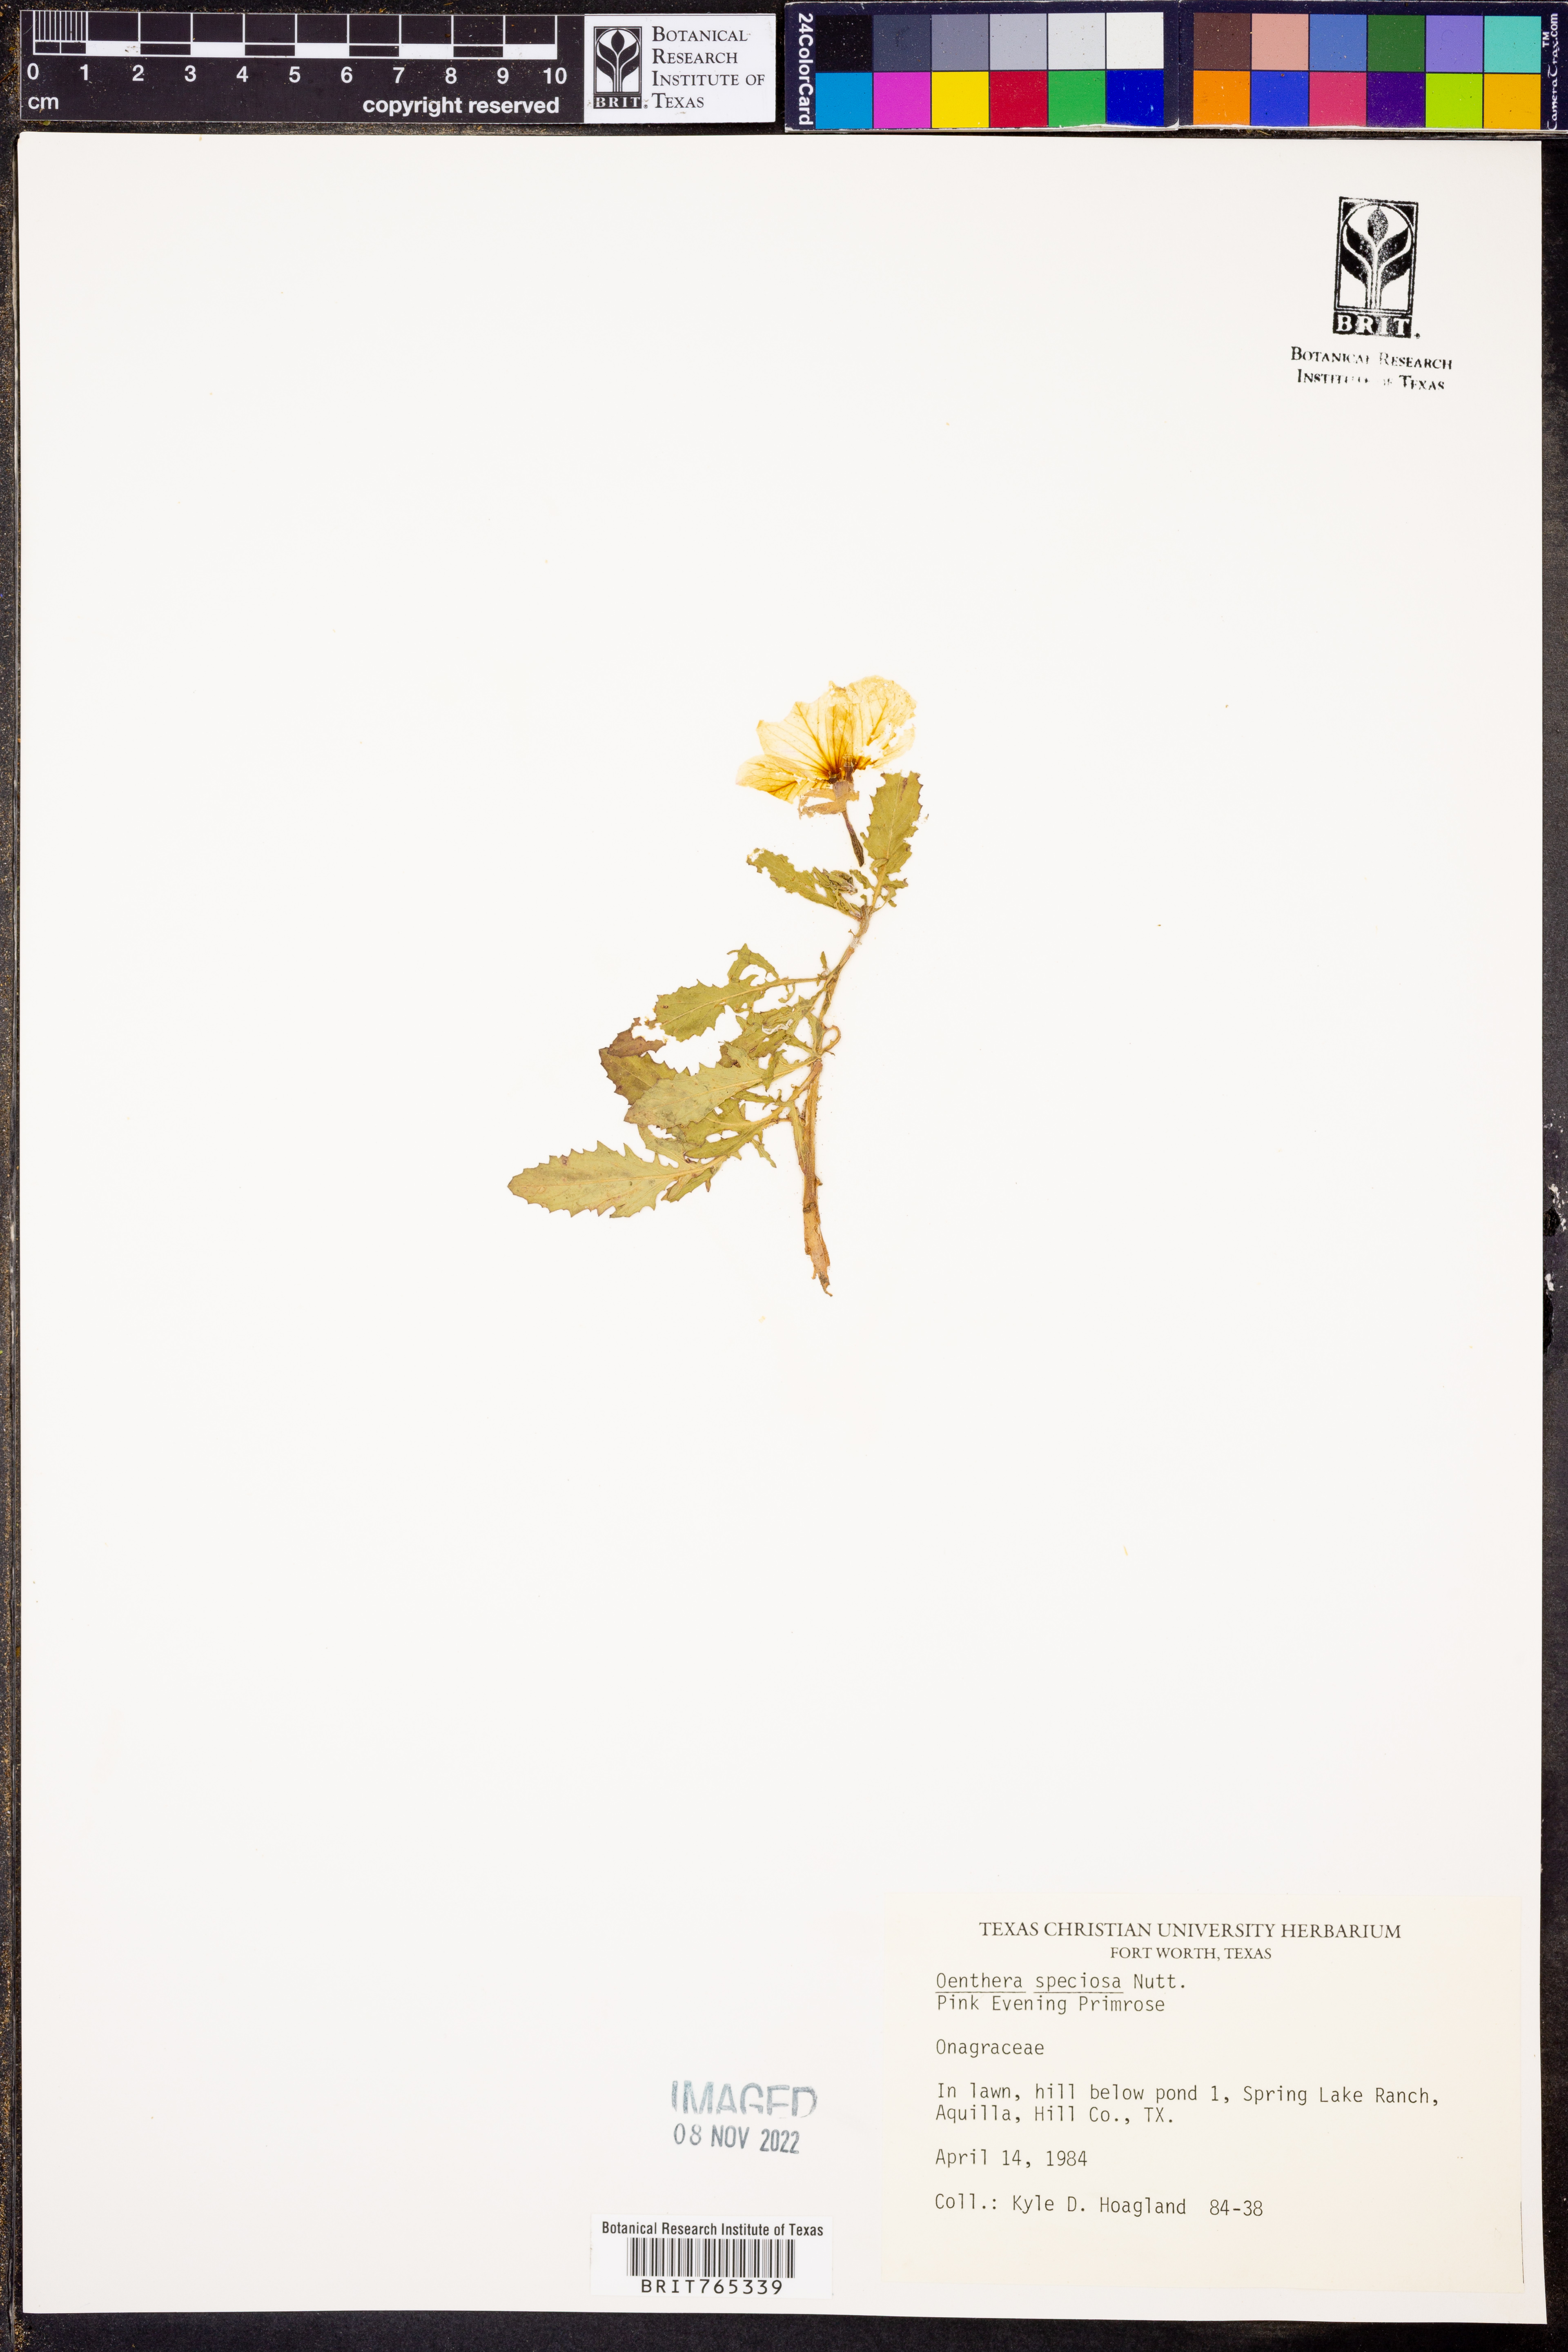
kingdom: Plantae
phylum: Tracheophyta
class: Magnoliopsida
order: Myrtales
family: Onagraceae
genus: Oenothera
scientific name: Oenothera speciosa
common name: White evening-primrose
